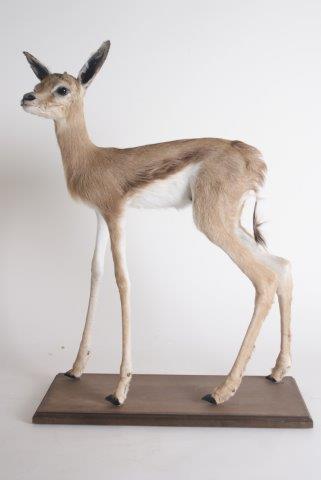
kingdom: Animalia
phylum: Chordata
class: Mammalia
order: Artiodactyla
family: Bovidae
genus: Antidorcas
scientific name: Antidorcas marsupialis
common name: Springbok
